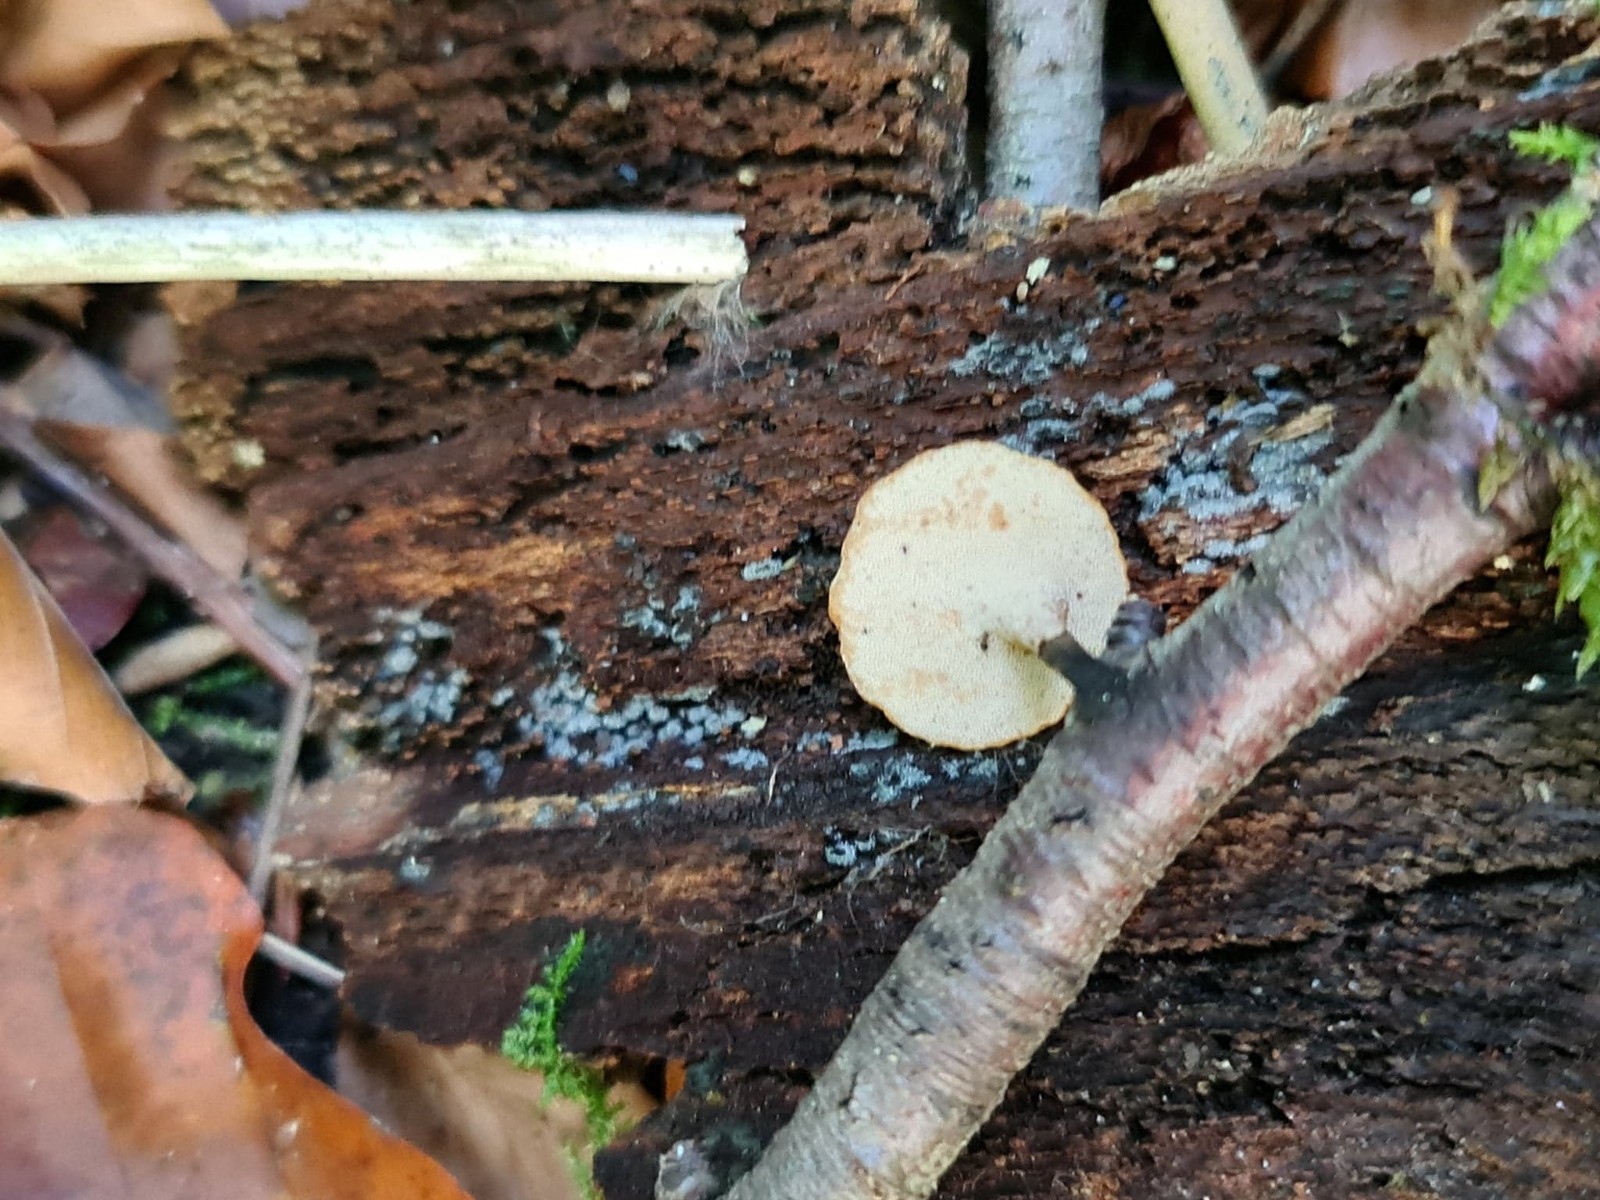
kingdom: Fungi
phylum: Basidiomycota
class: Agaricomycetes
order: Polyporales
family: Polyporaceae
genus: Cerioporus
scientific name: Cerioporus varius
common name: foranderlig stilkporesvamp
